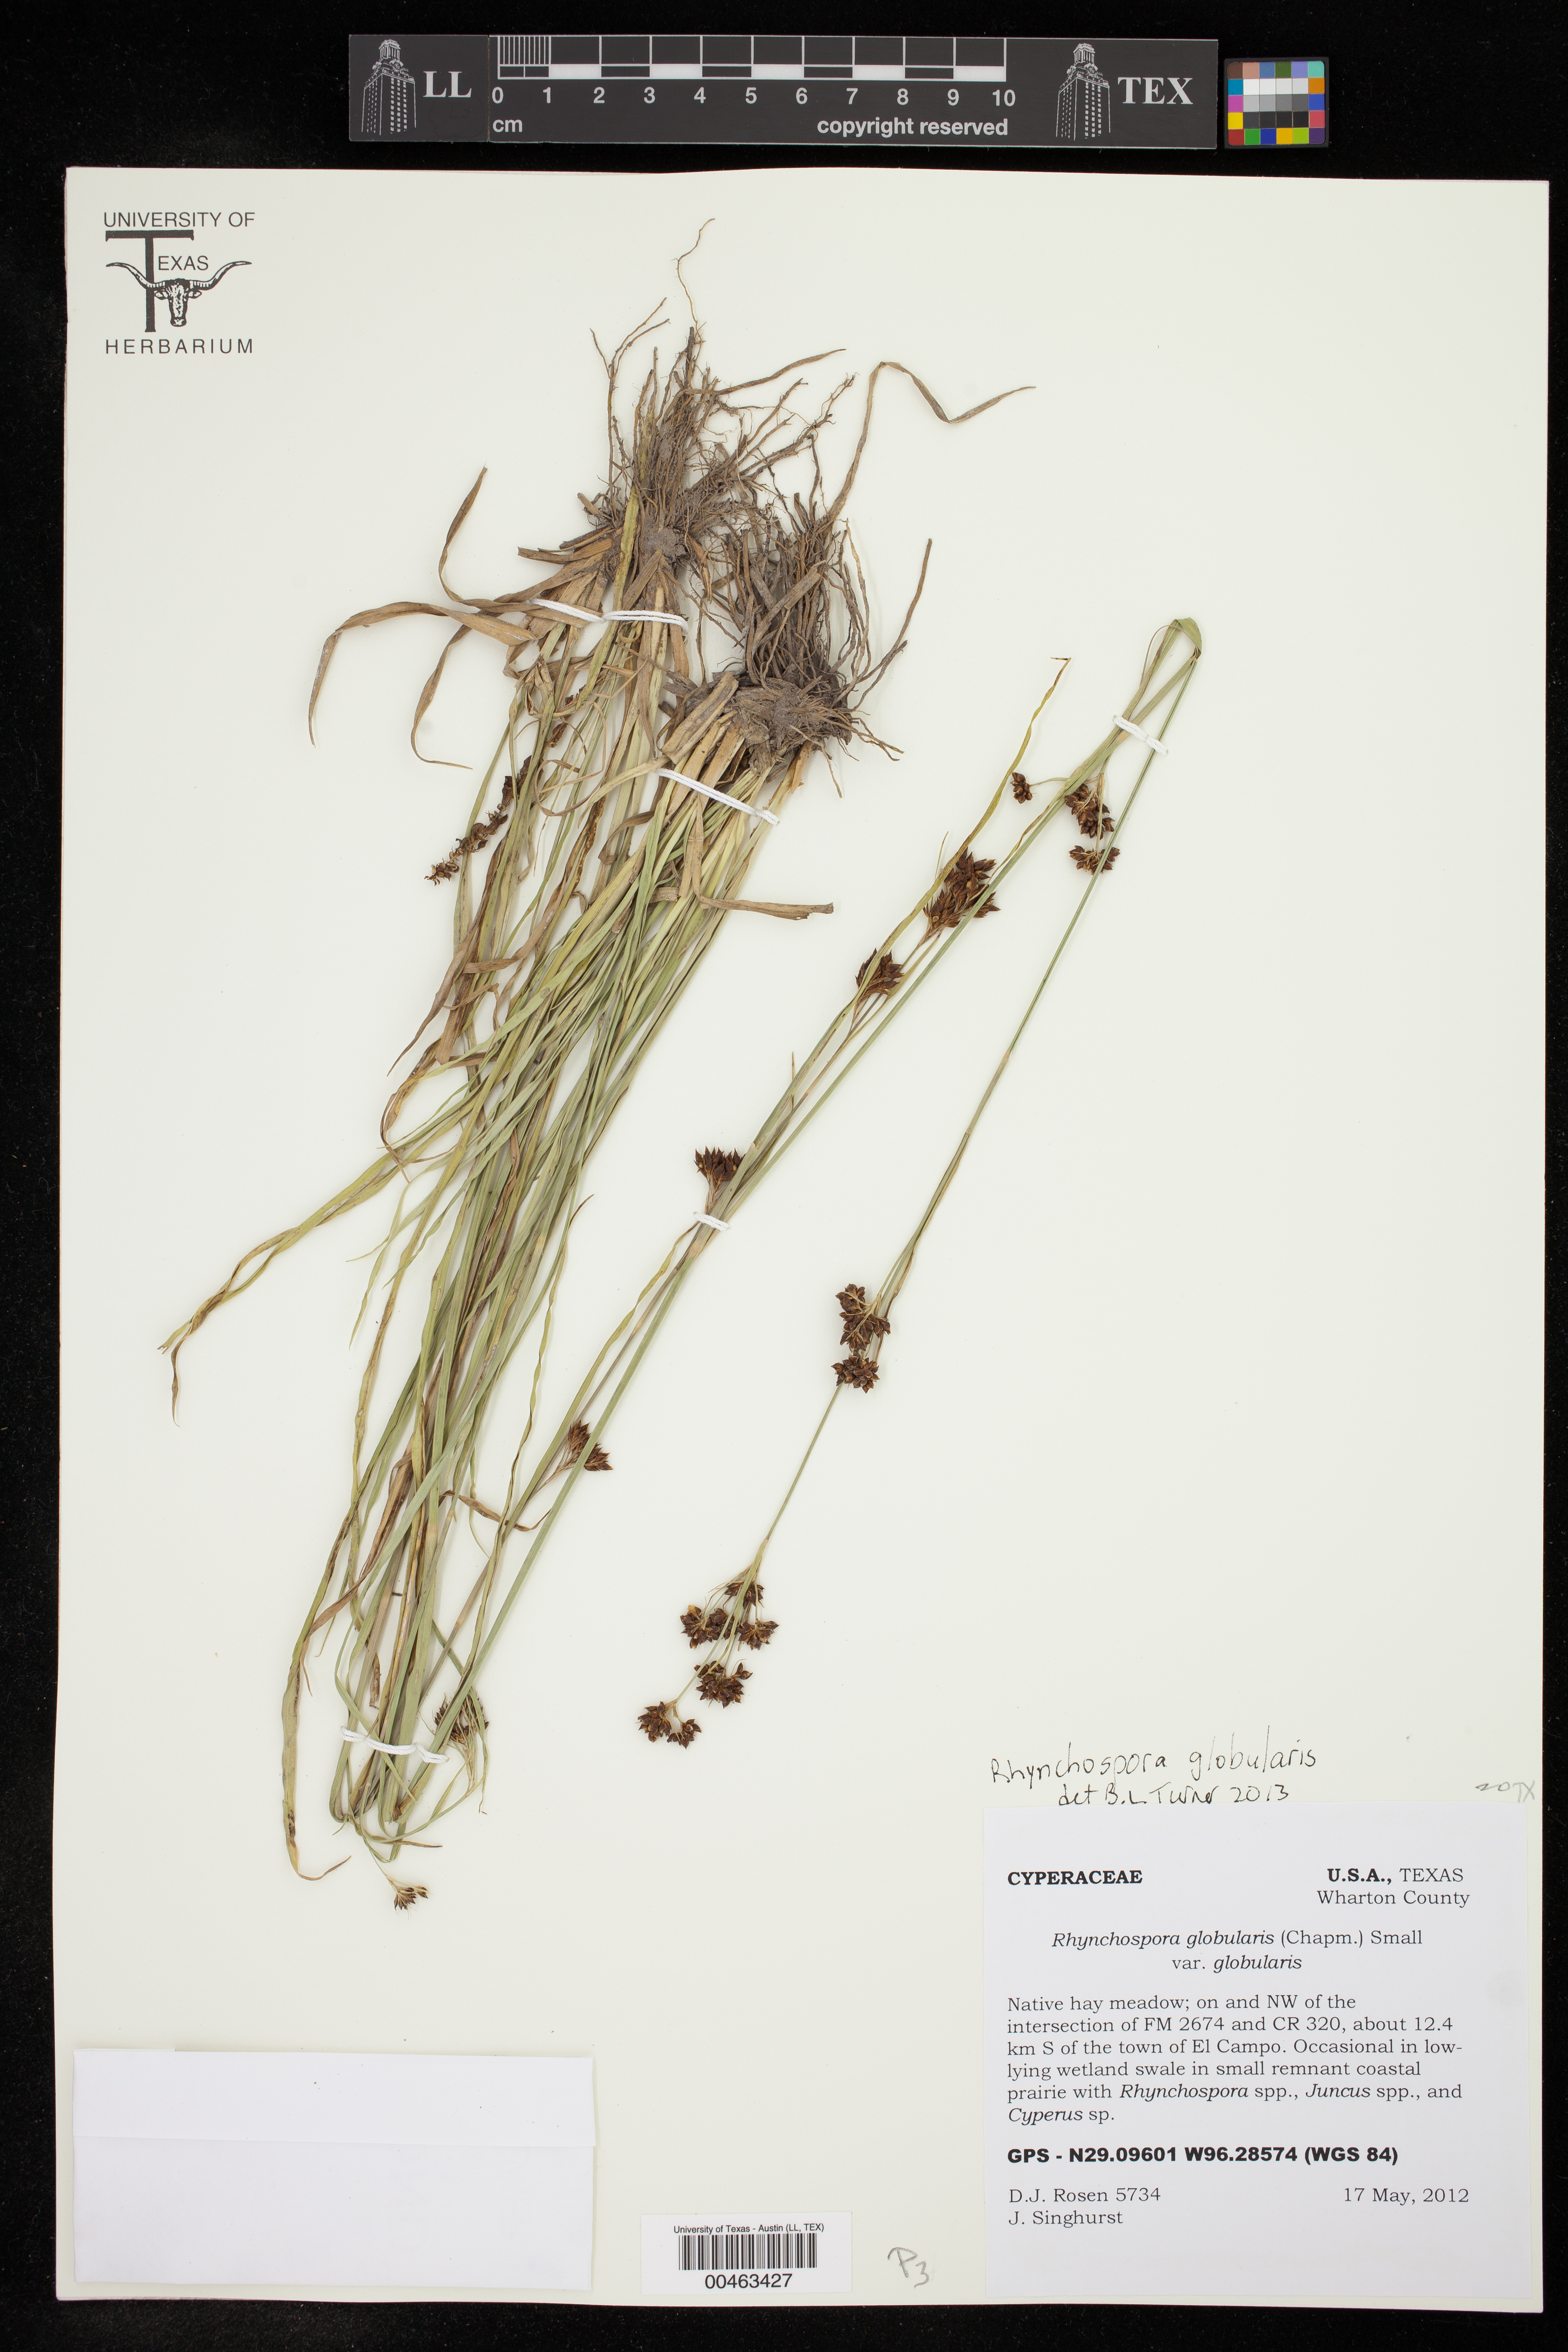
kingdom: Plantae
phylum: Tracheophyta
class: Liliopsida
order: Poales
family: Cyperaceae
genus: Rhynchospora
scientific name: Rhynchospora globularis
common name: Globe beaksedge
